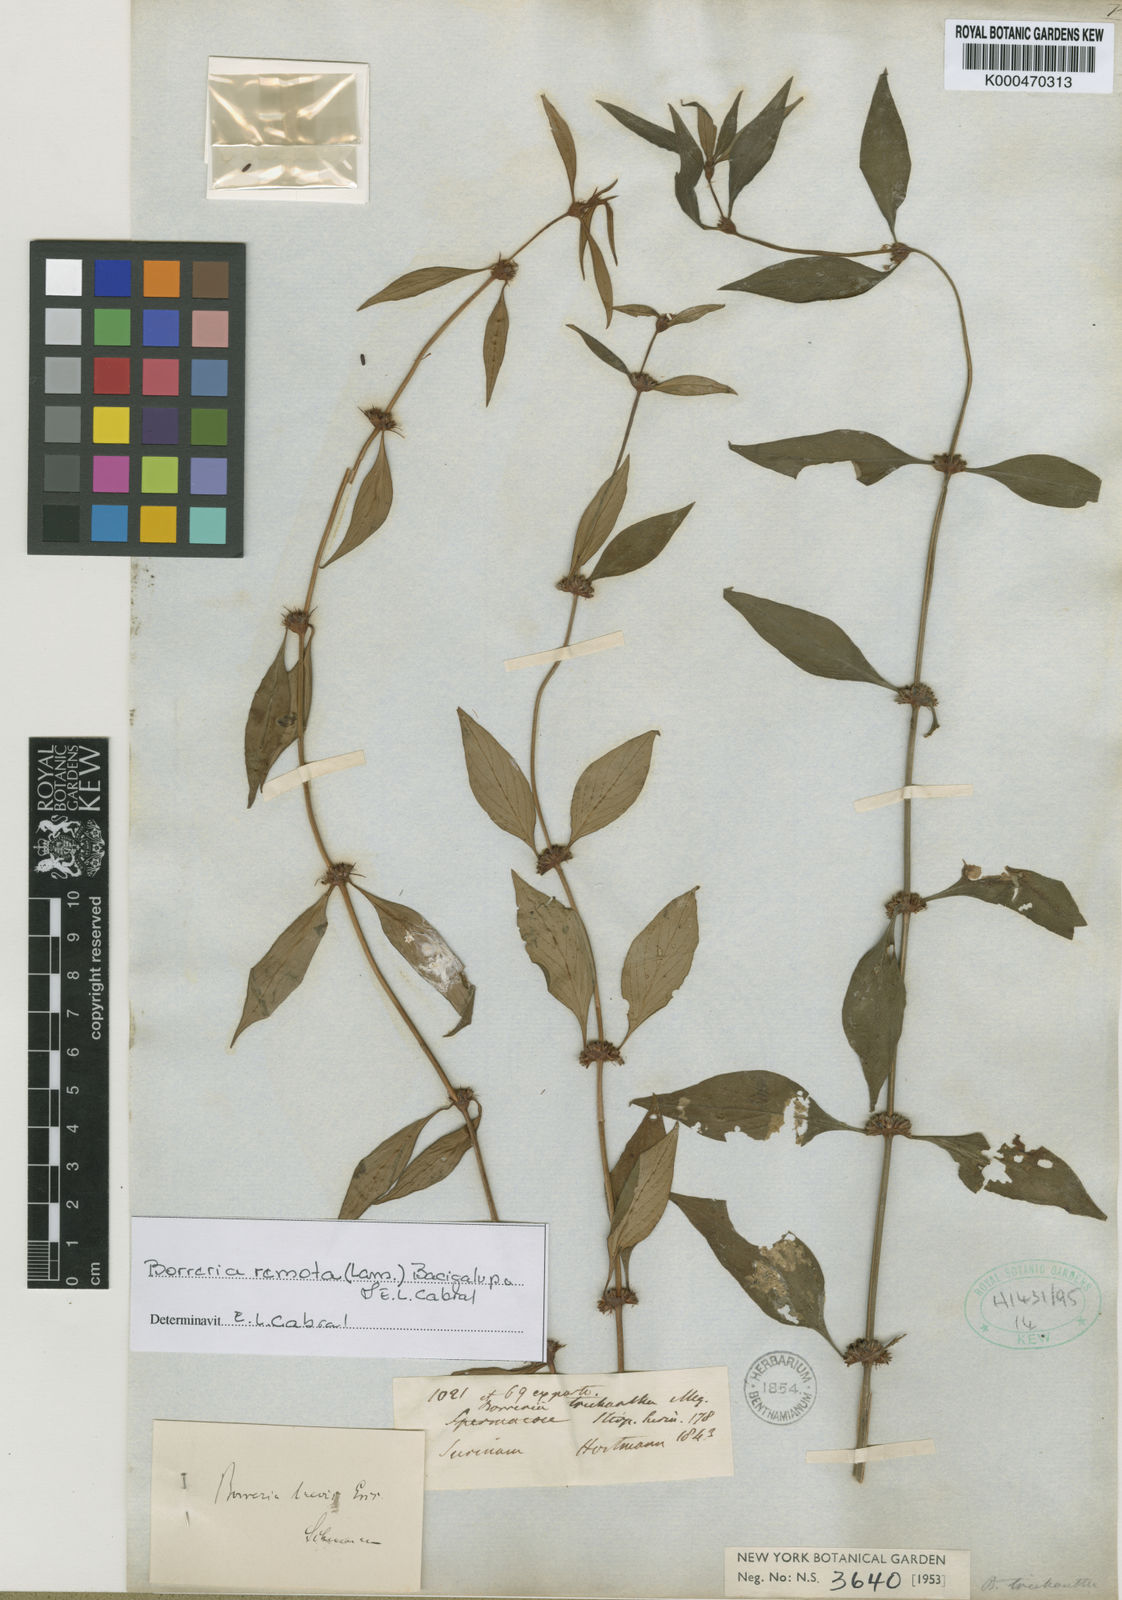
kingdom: Plantae
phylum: Tracheophyta
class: Magnoliopsida
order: Gentianales
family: Rubiaceae
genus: Spermacoce
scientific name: Spermacoce remota
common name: Woodland false buttonweed
